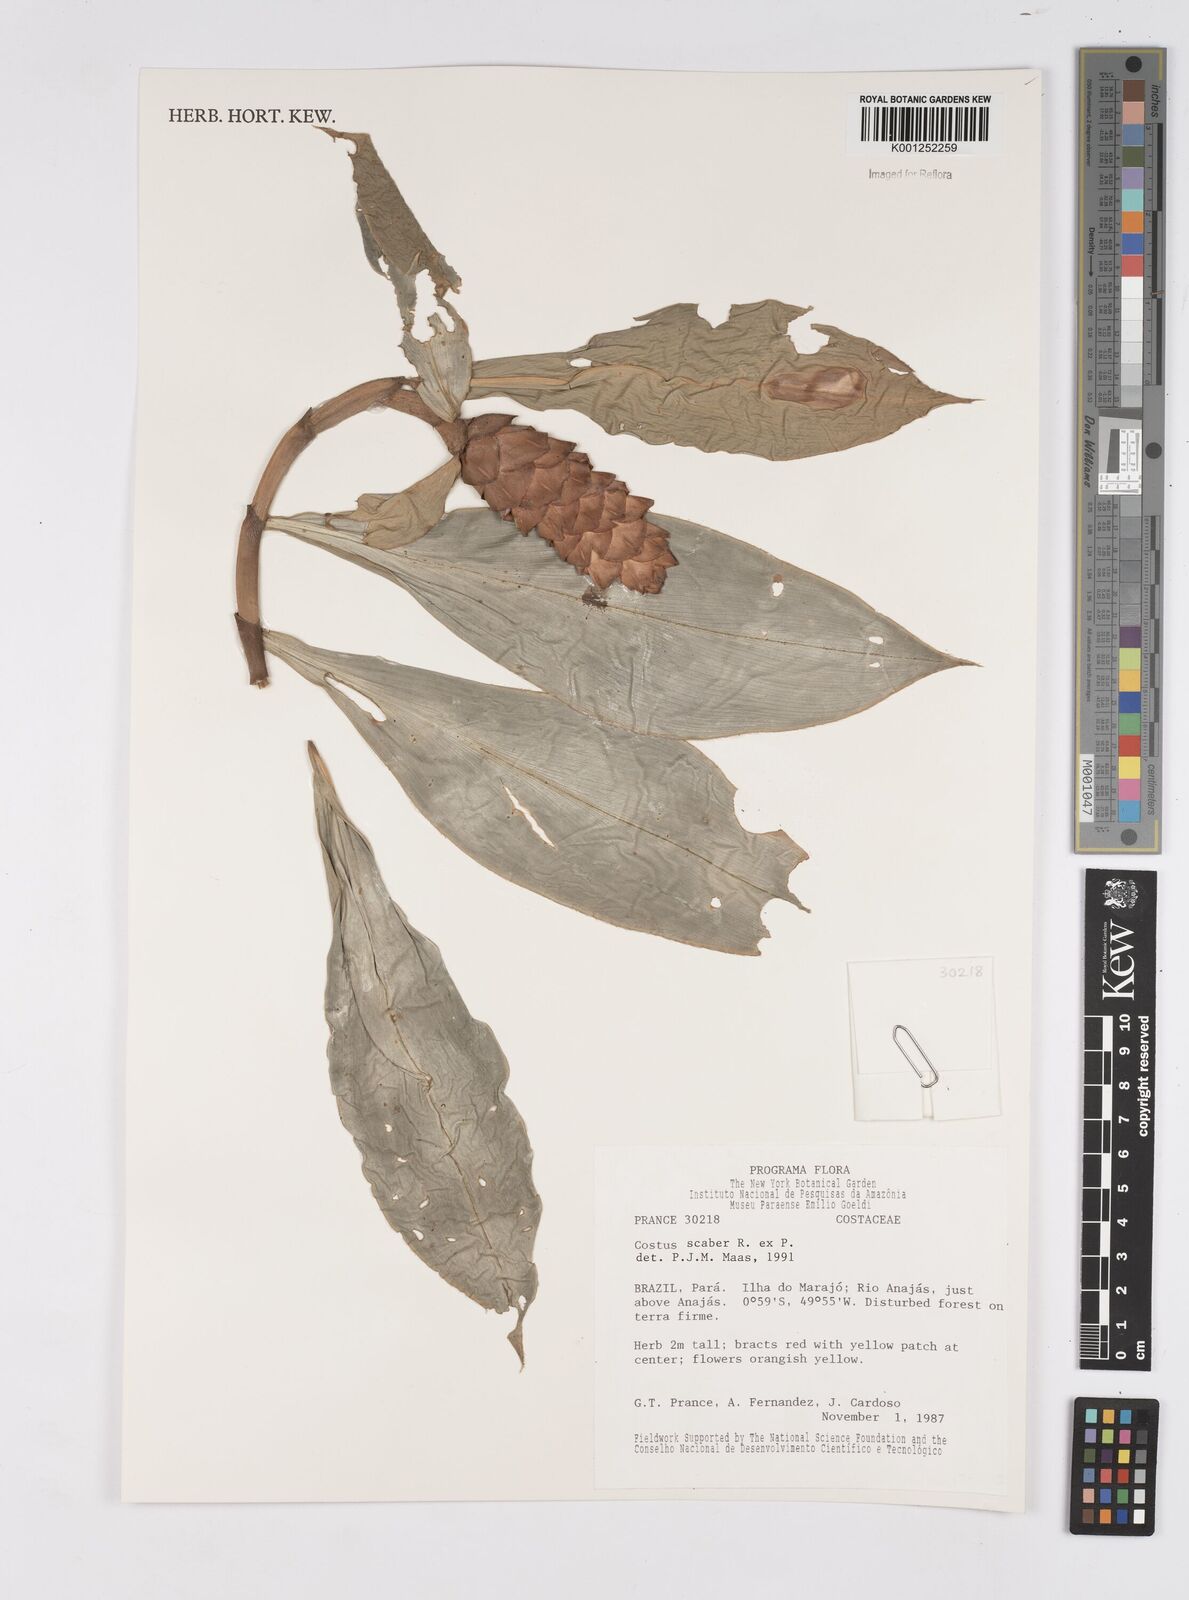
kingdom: Plantae
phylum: Tracheophyta
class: Liliopsida
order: Zingiberales
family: Costaceae
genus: Costus
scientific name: Costus scaber
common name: Spiral head ginger
